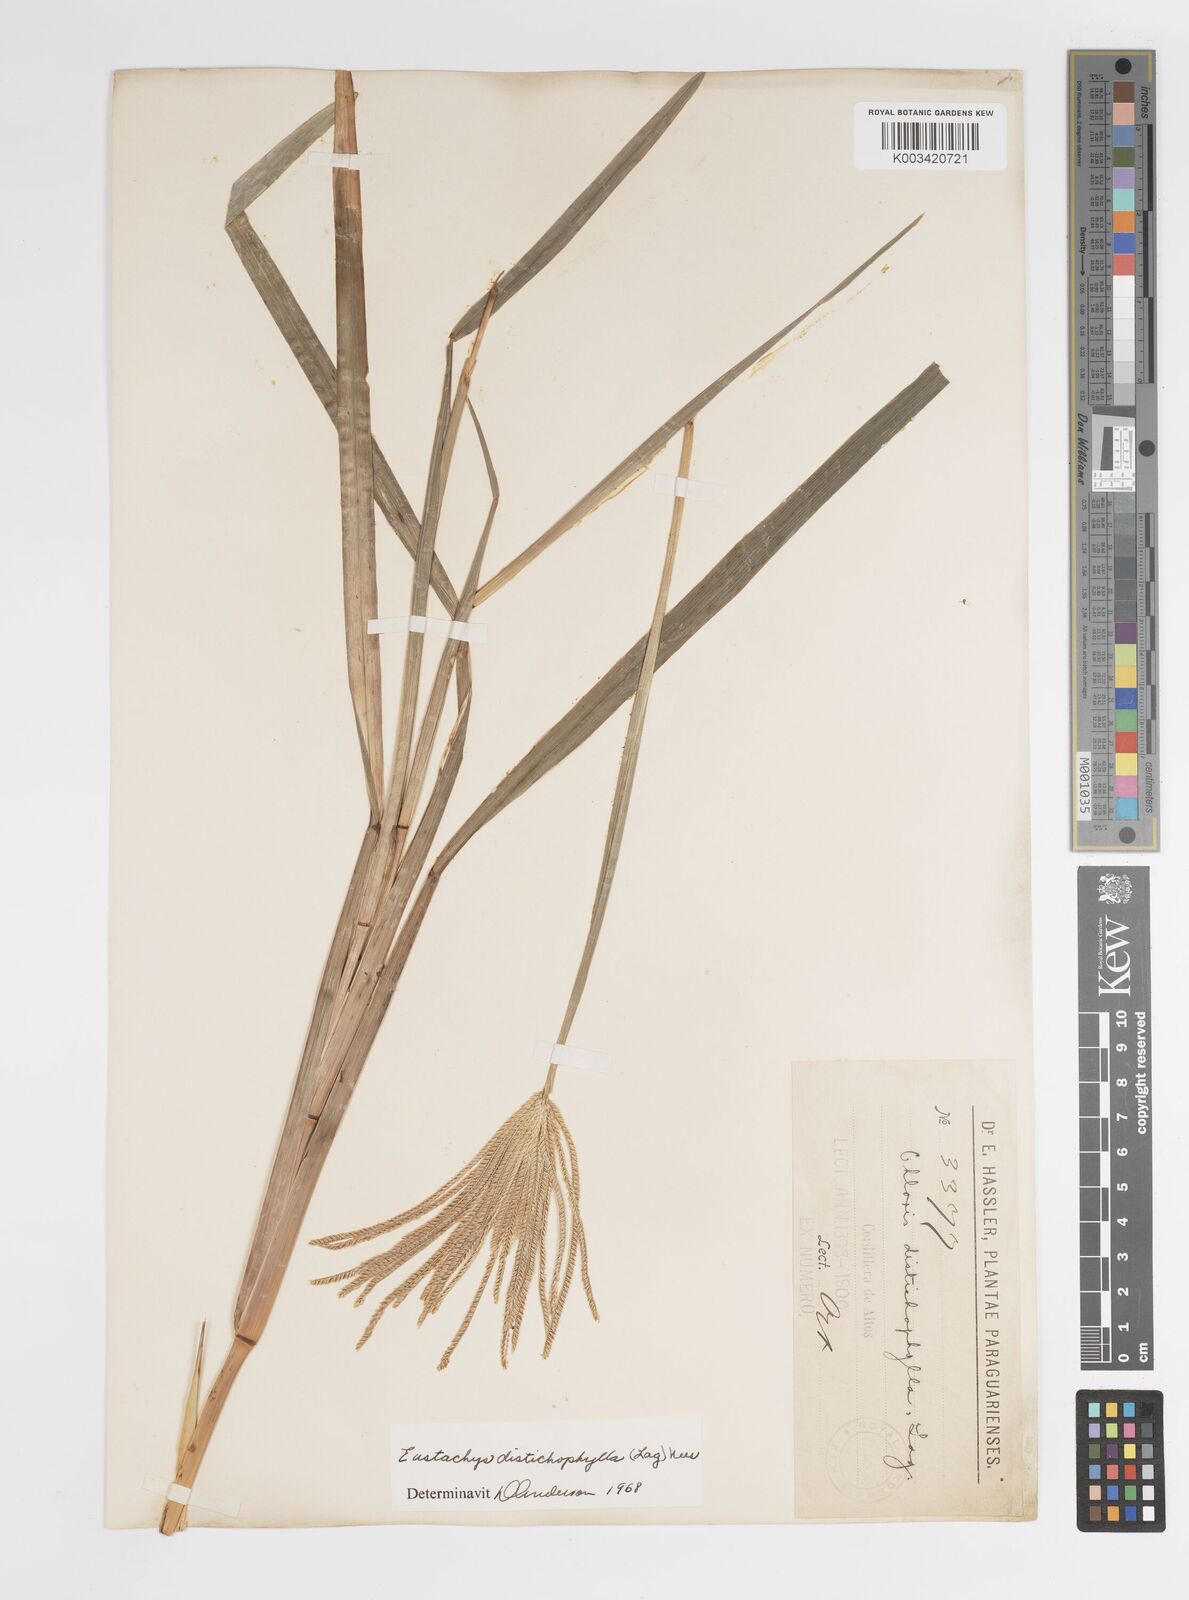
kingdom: Plantae
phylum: Tracheophyta
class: Liliopsida
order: Poales
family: Poaceae
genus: Eustachys
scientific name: Eustachys distichophylla
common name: Weeping fingergrass
